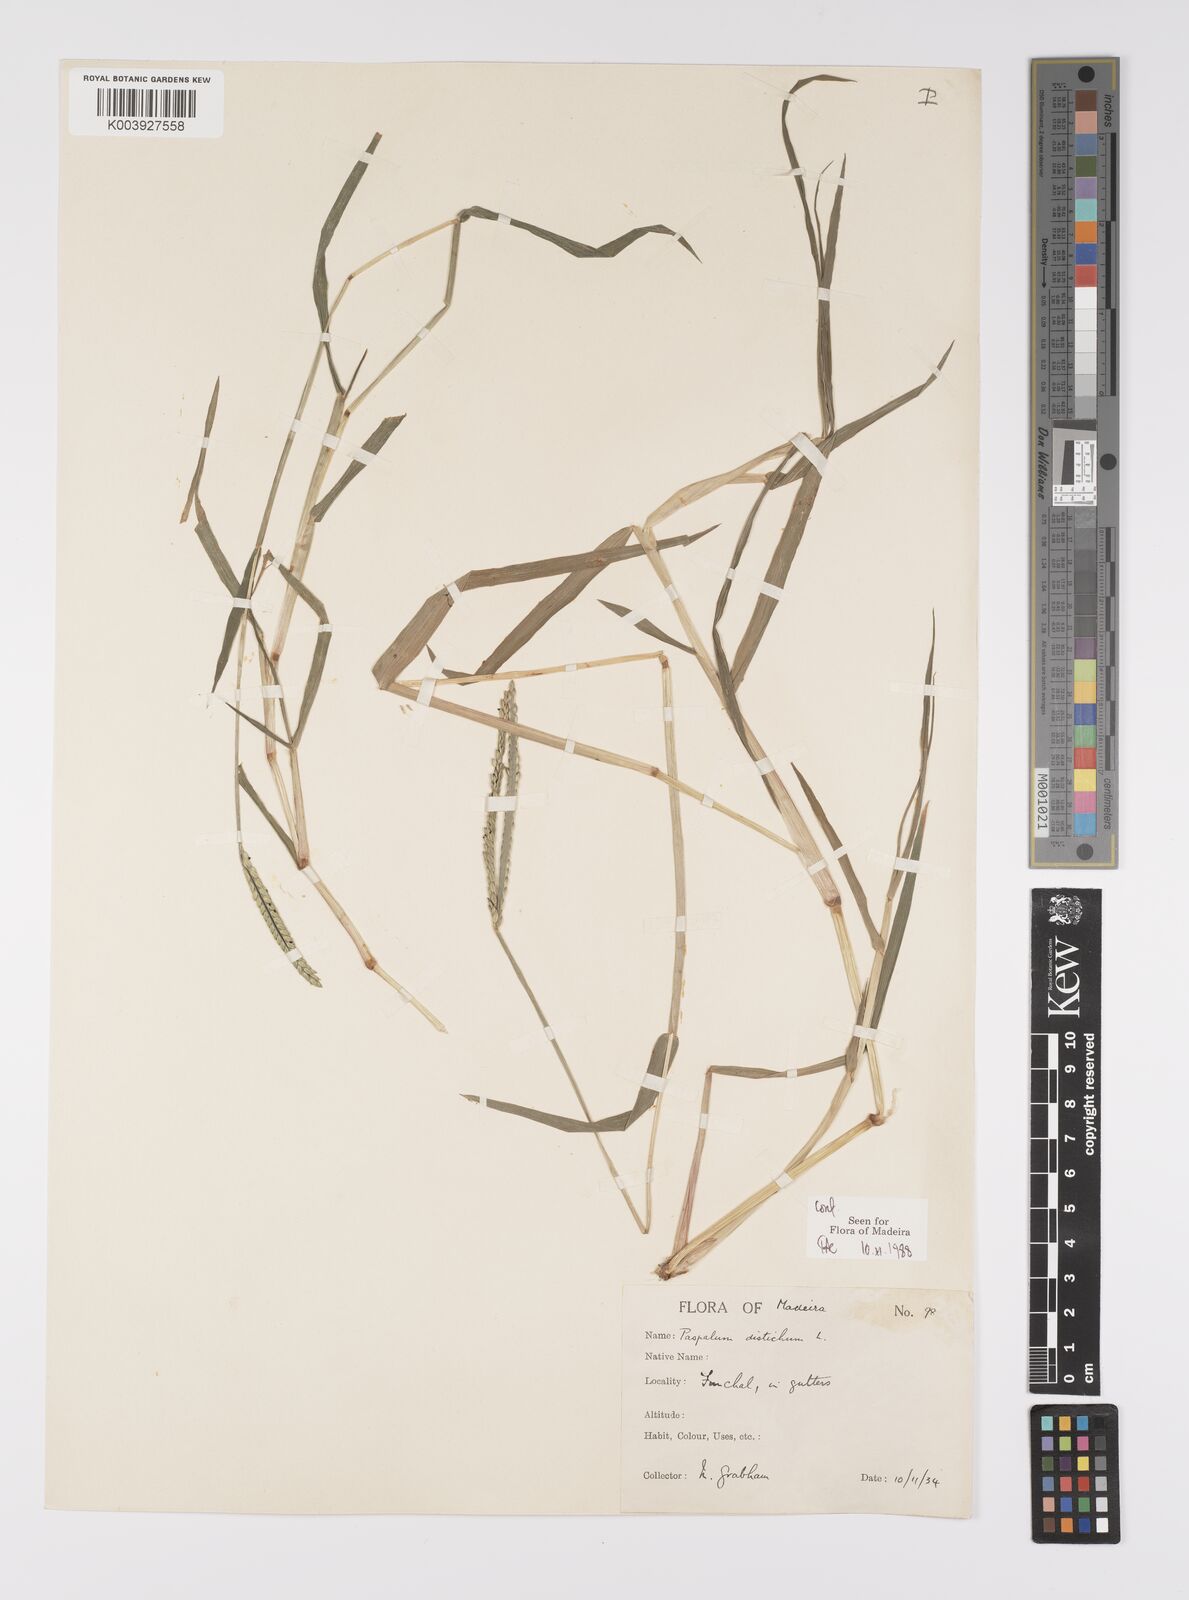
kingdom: Plantae
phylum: Tracheophyta
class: Liliopsida
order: Poales
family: Poaceae
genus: Paspalum
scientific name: Paspalum distichum
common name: Knotgrass
